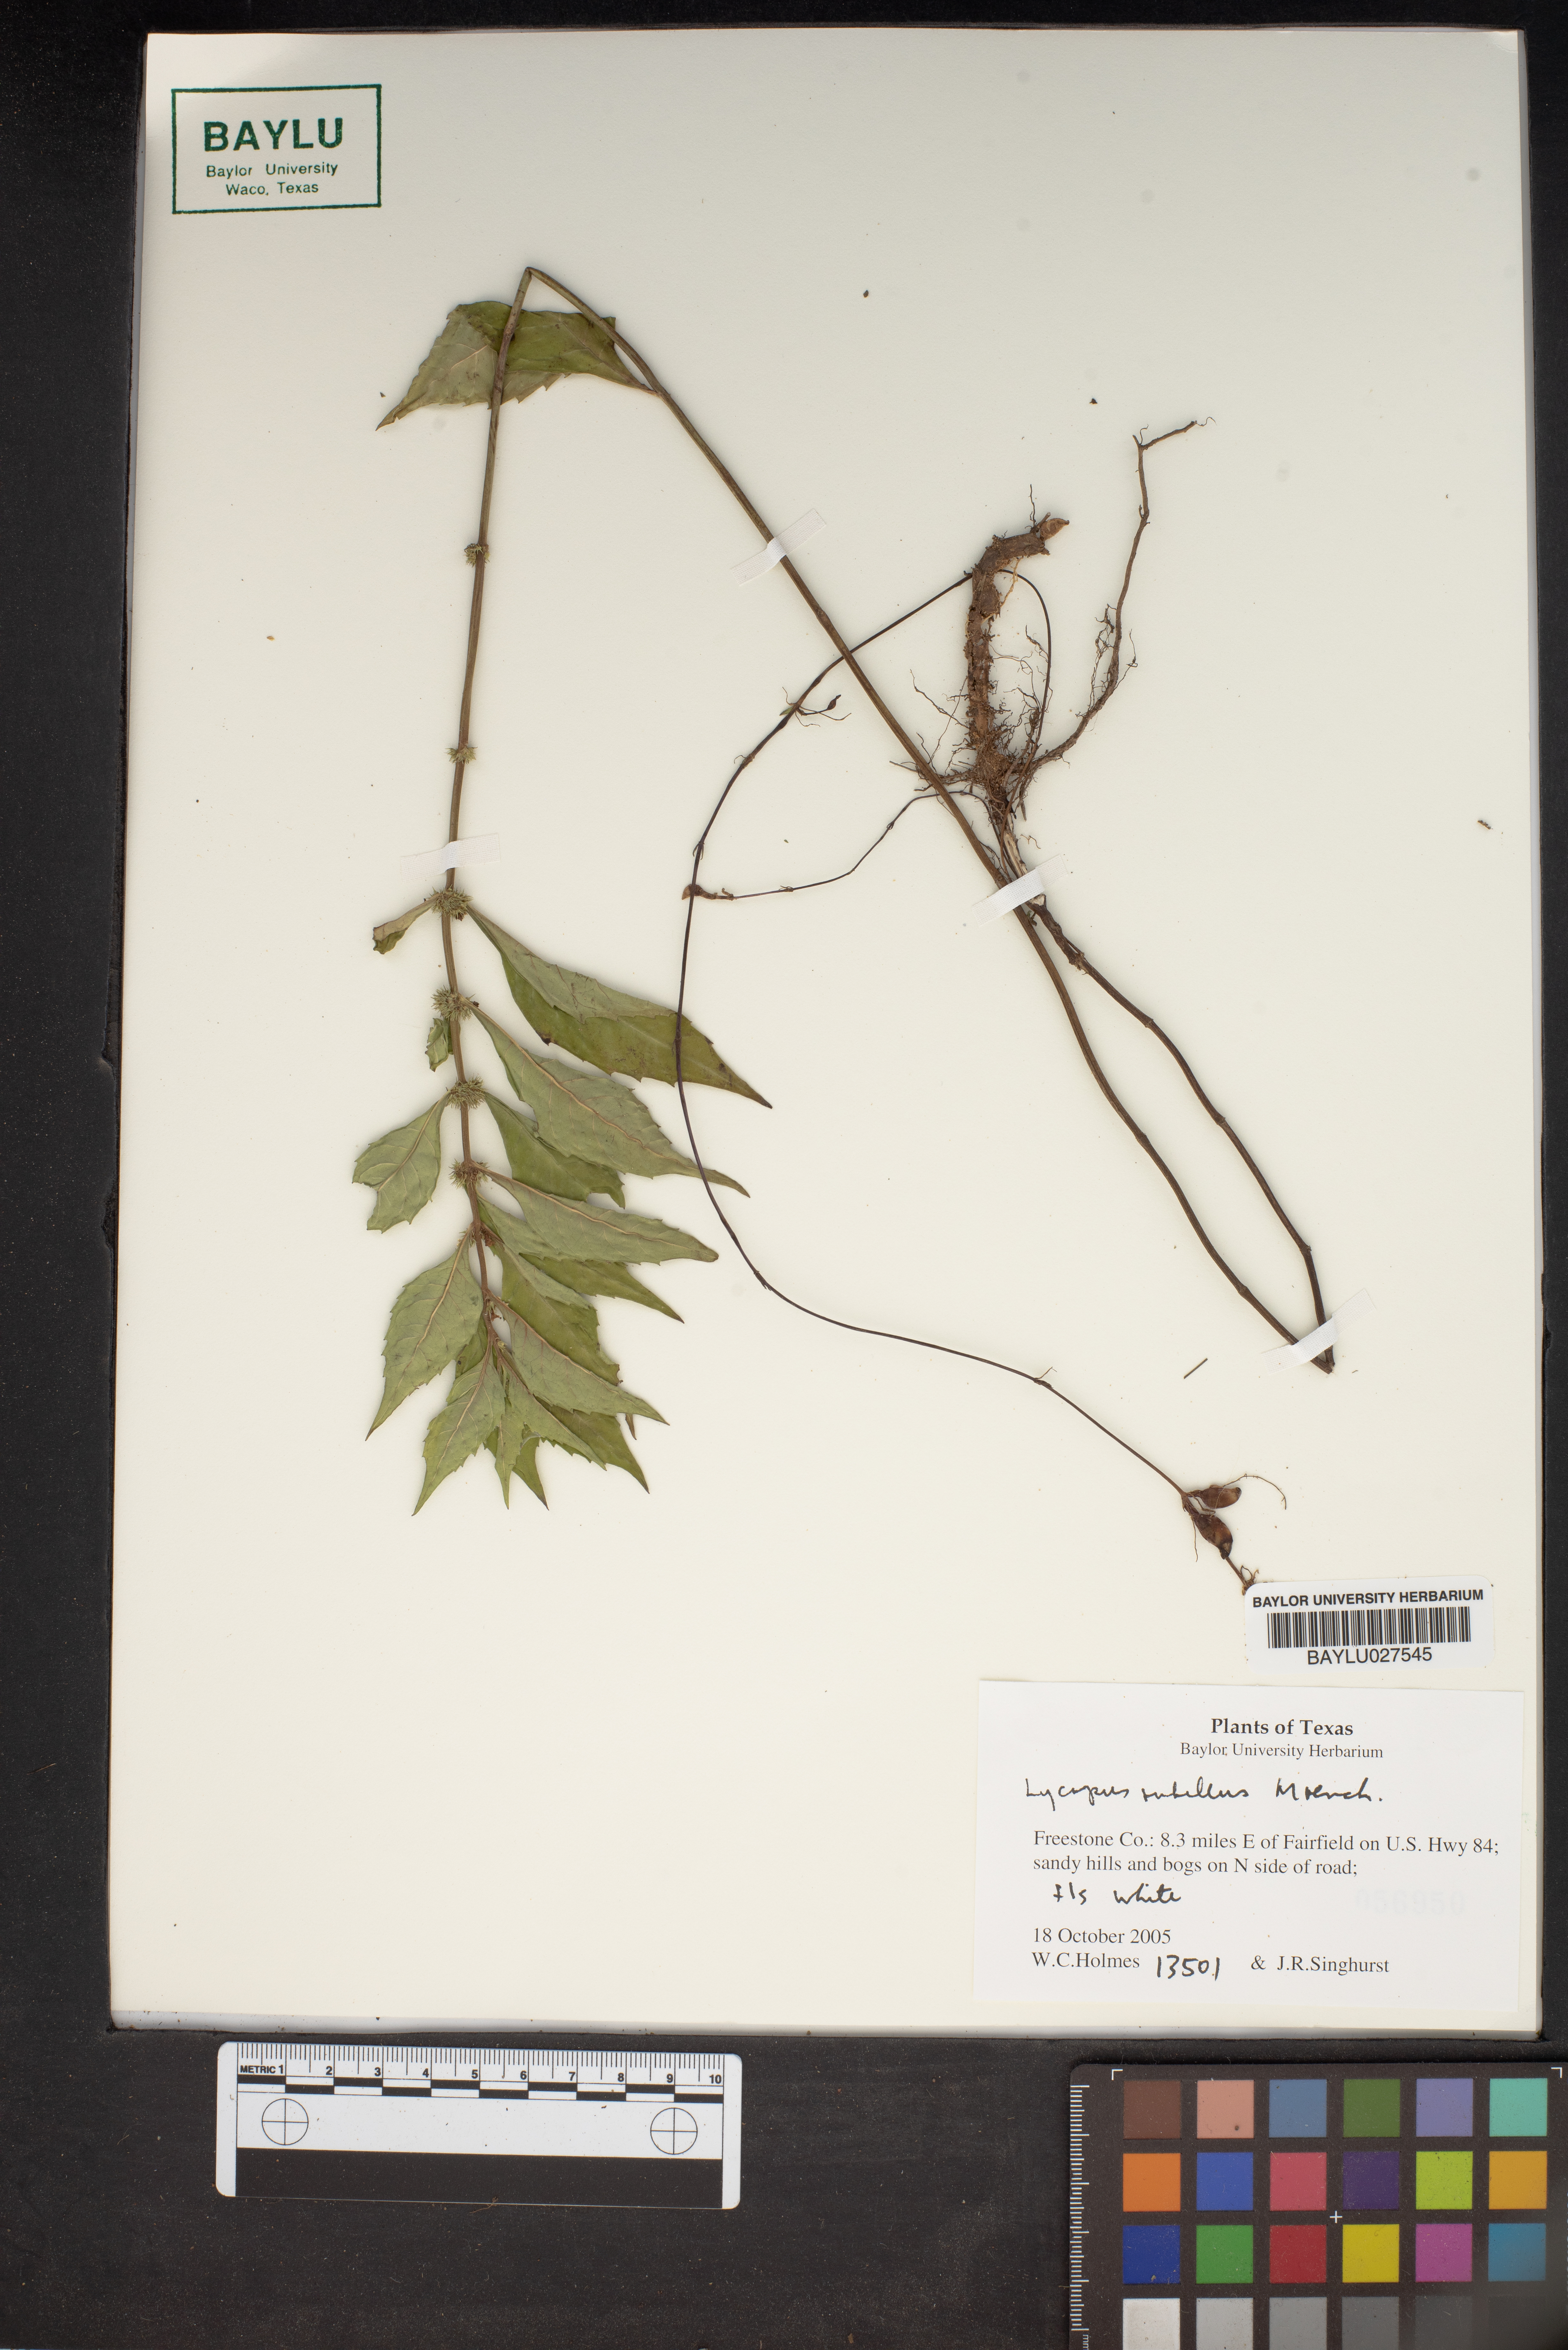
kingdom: Plantae
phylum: Tracheophyta
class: Magnoliopsida
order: Lamiales
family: Lamiaceae
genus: Lycopus
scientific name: Lycopus rubellus
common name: Stalked bugleweed
